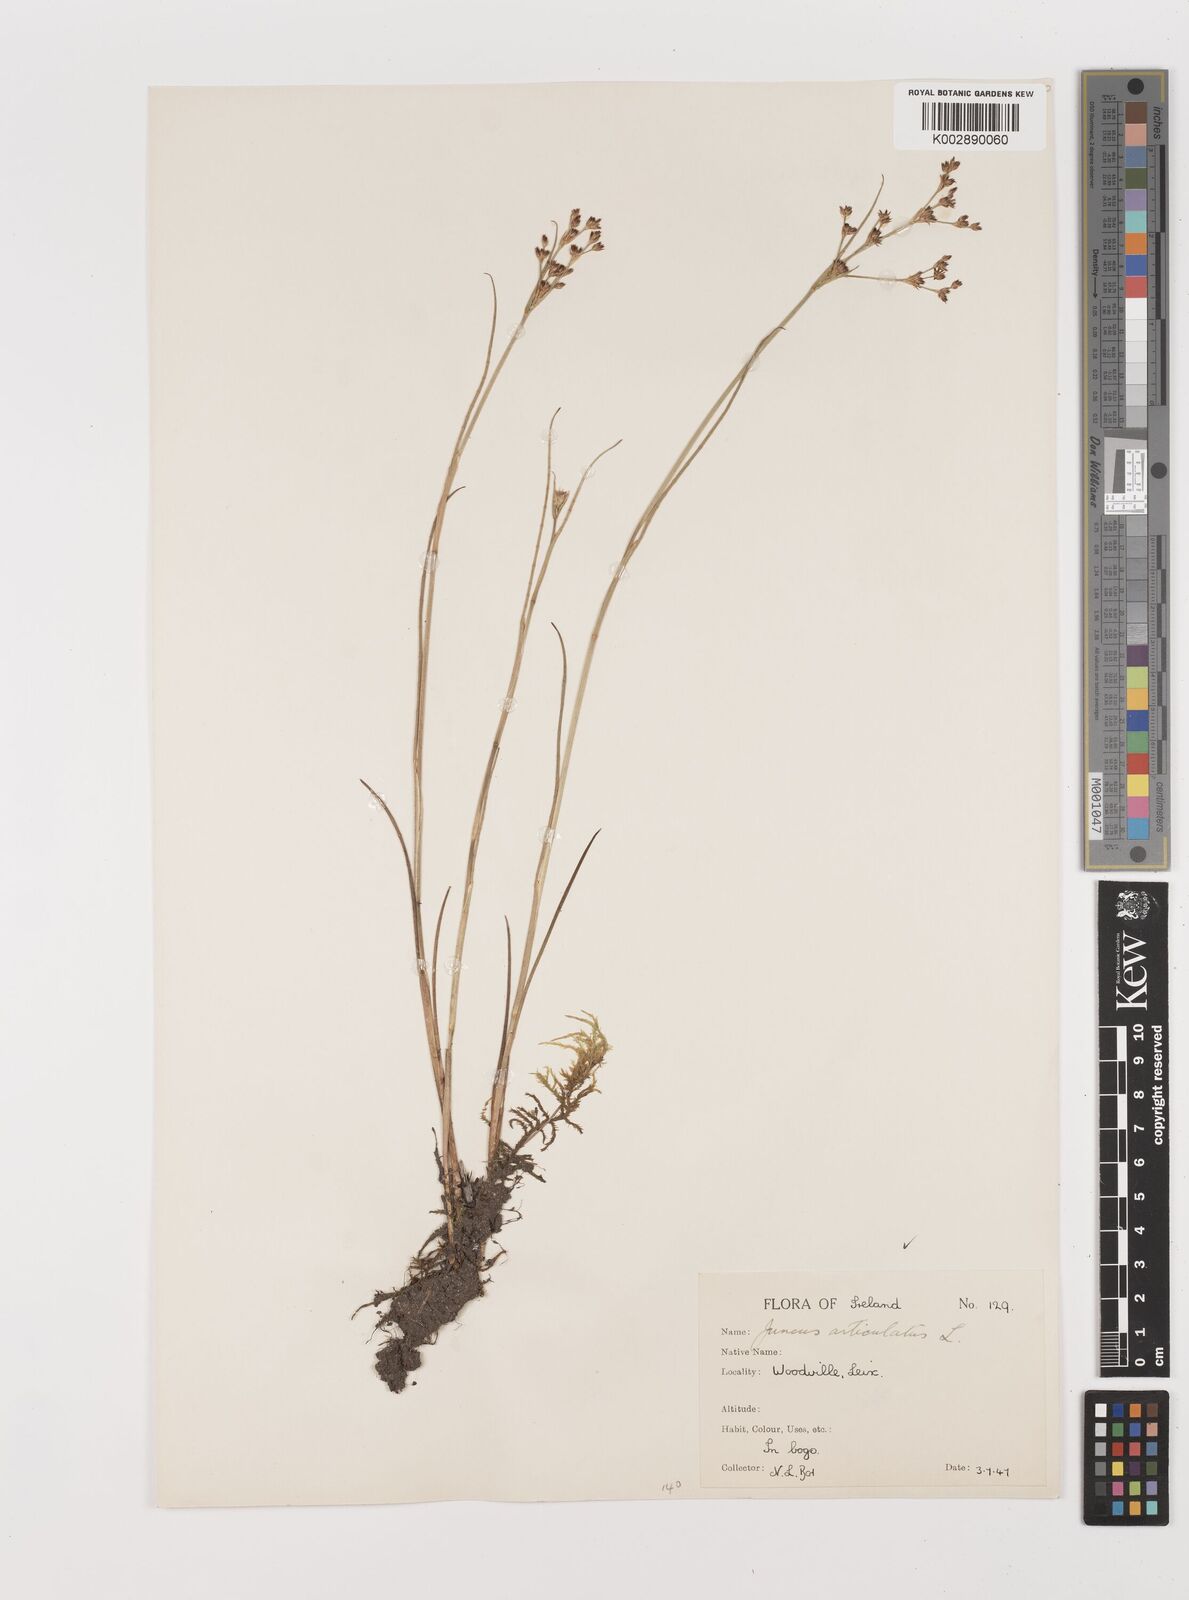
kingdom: Plantae
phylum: Tracheophyta
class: Liliopsida
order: Poales
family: Juncaceae
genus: Juncus
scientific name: Juncus articulatus
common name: Jointed rush
